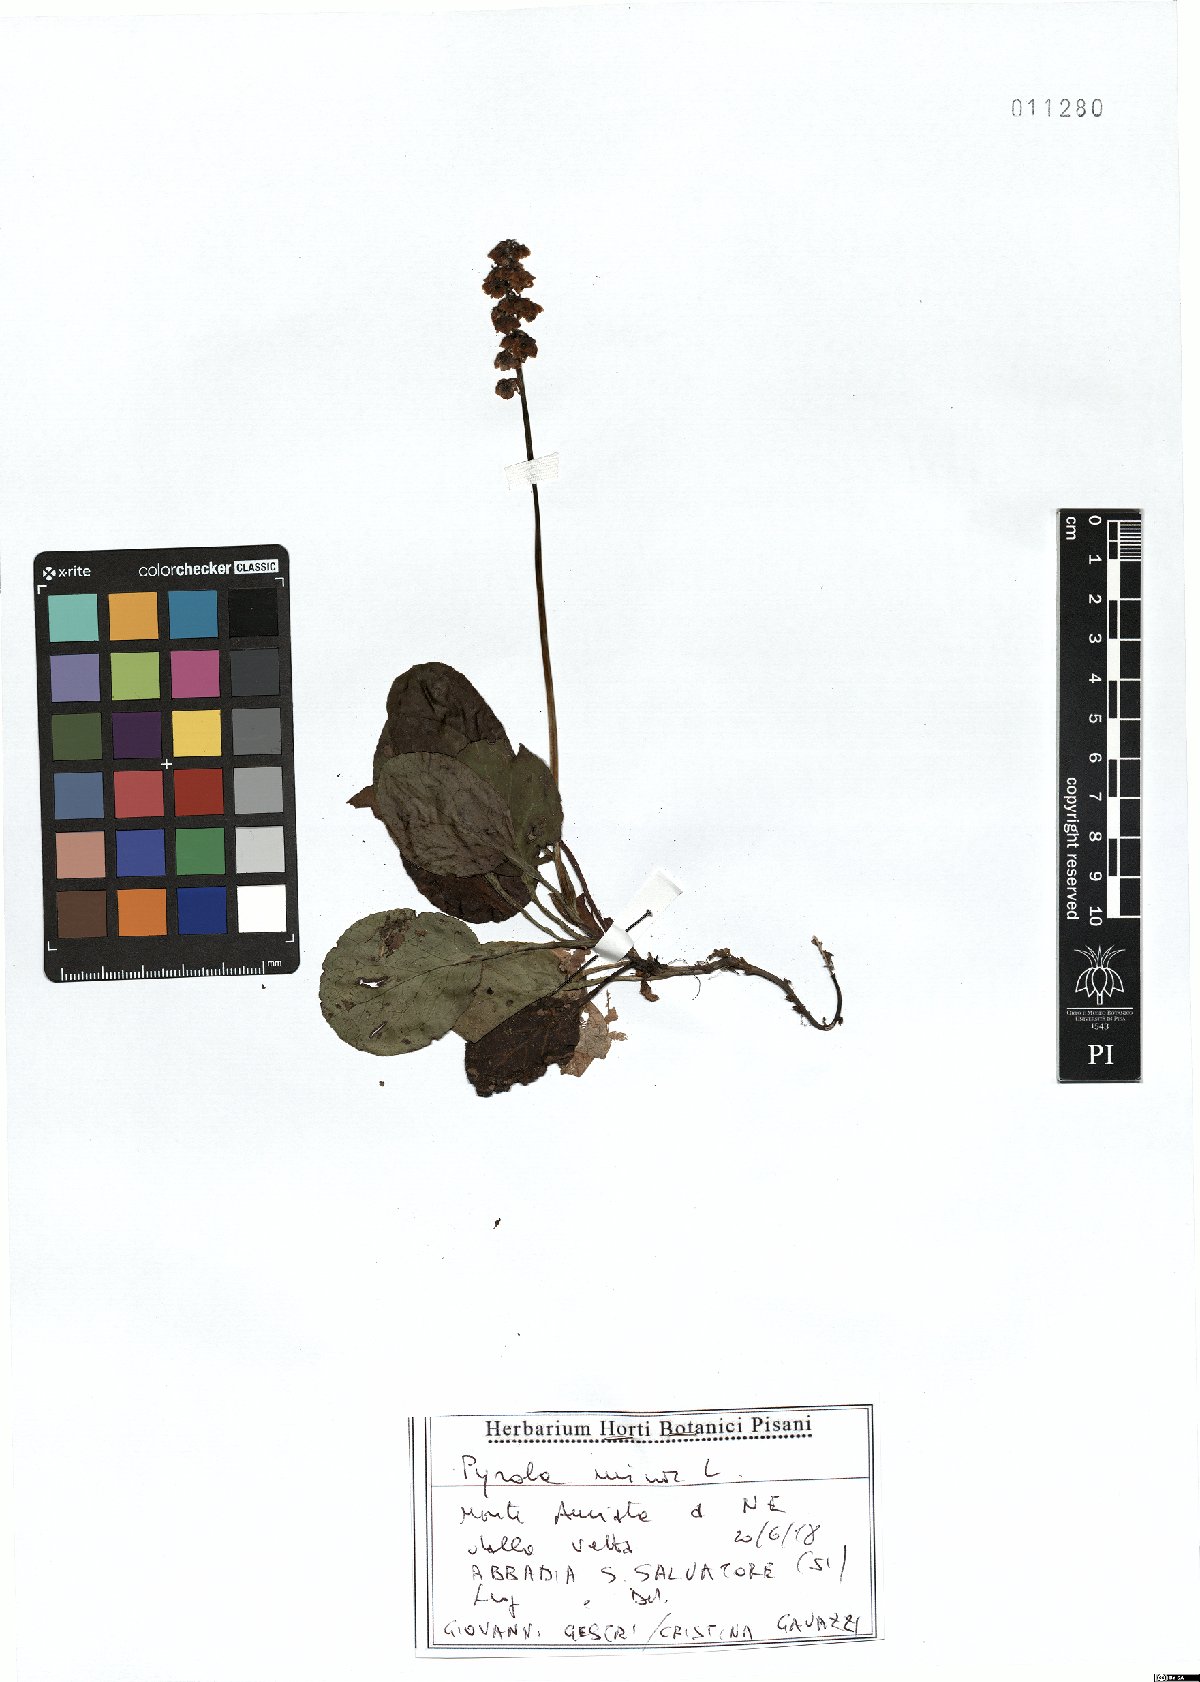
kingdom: Plantae
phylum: Tracheophyta
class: Magnoliopsida
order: Ericales
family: Ericaceae
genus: Pyrola
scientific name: Pyrola minor
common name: Common wintergreen
